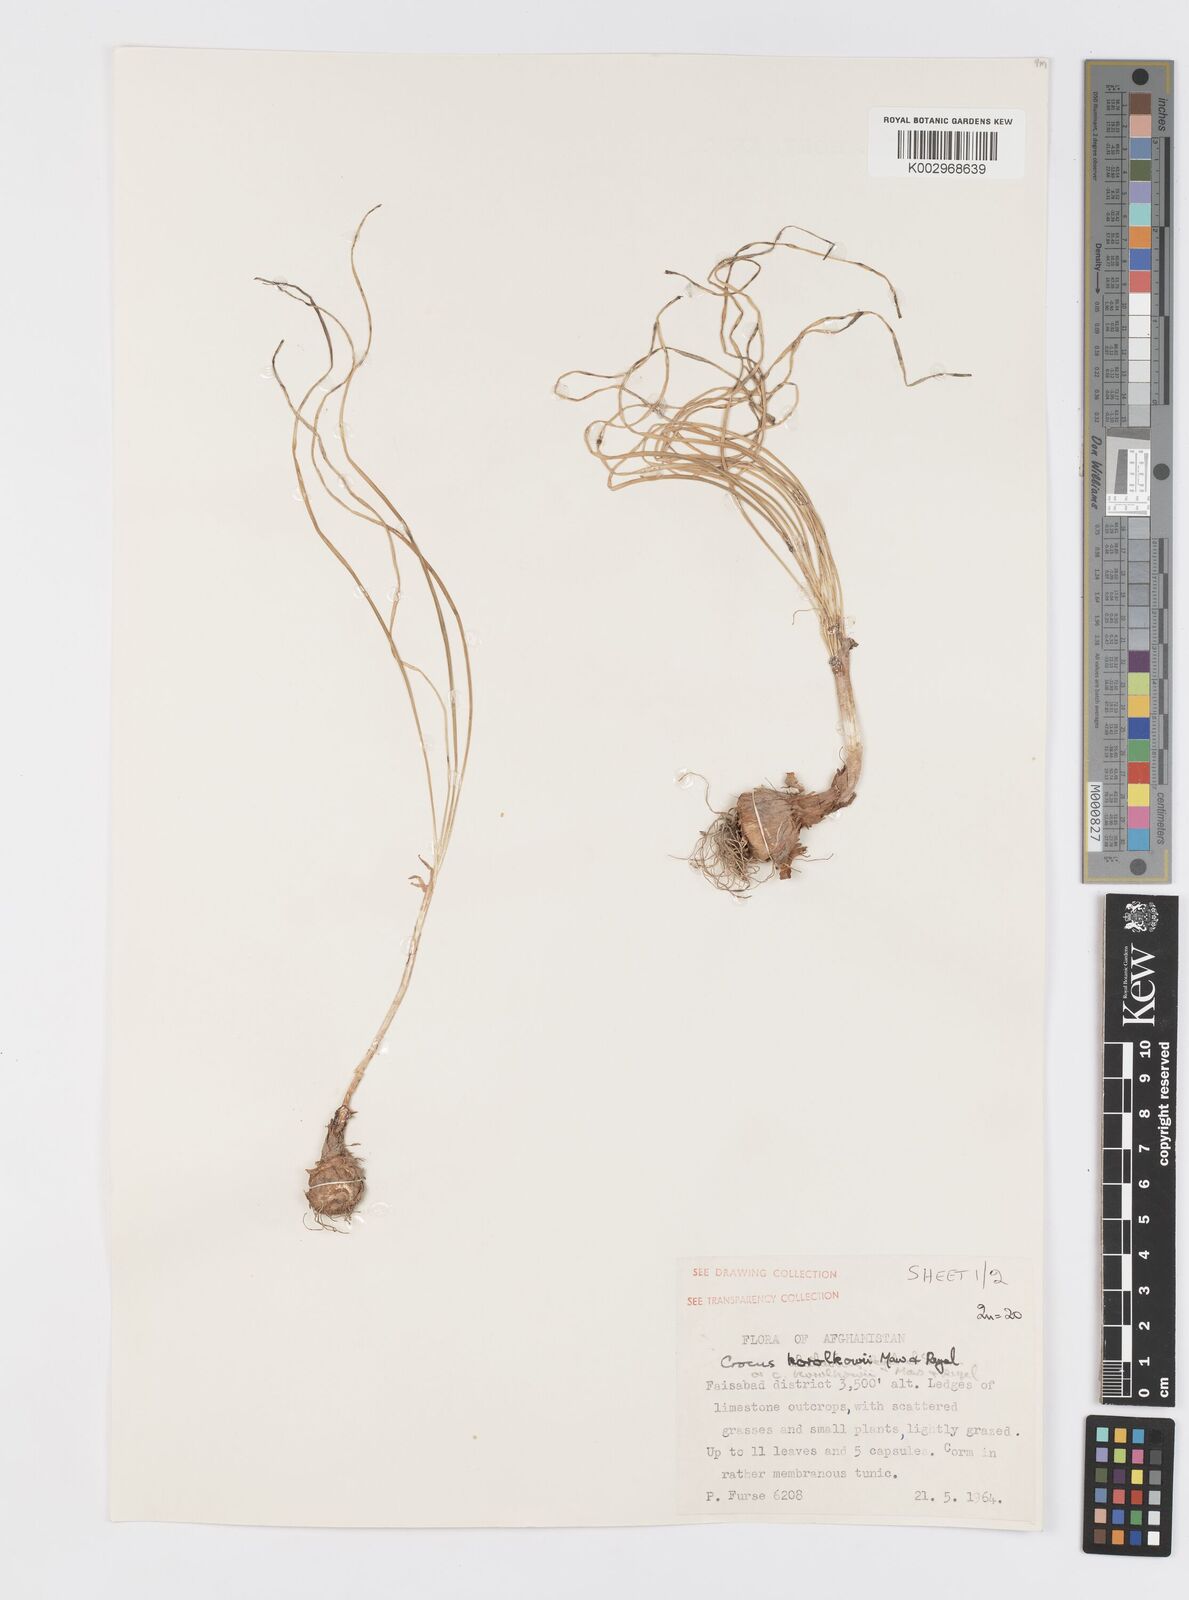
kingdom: Plantae
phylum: Tracheophyta
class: Liliopsida
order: Asparagales
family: Iridaceae
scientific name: Iridaceae
